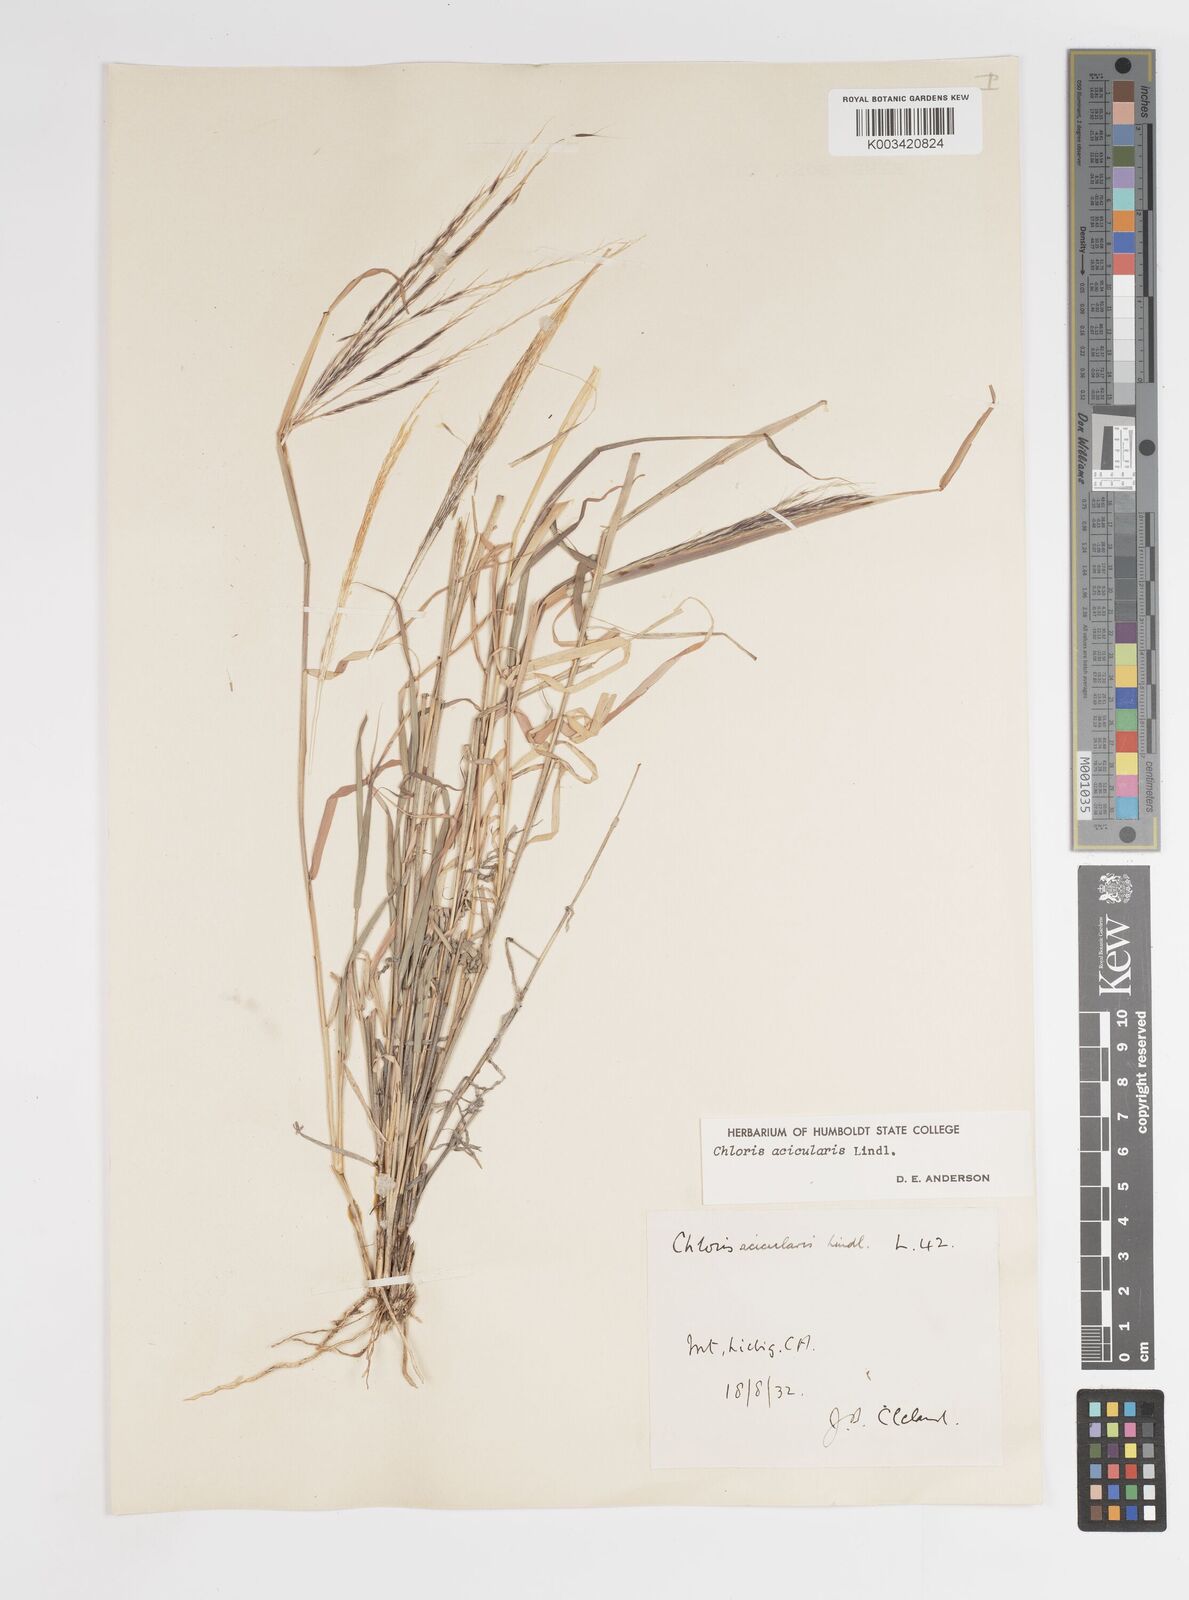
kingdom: Plantae
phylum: Tracheophyta
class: Liliopsida
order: Poales
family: Poaceae
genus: Enteropogon
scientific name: Enteropogon acicularis
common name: Curly windmill grass
